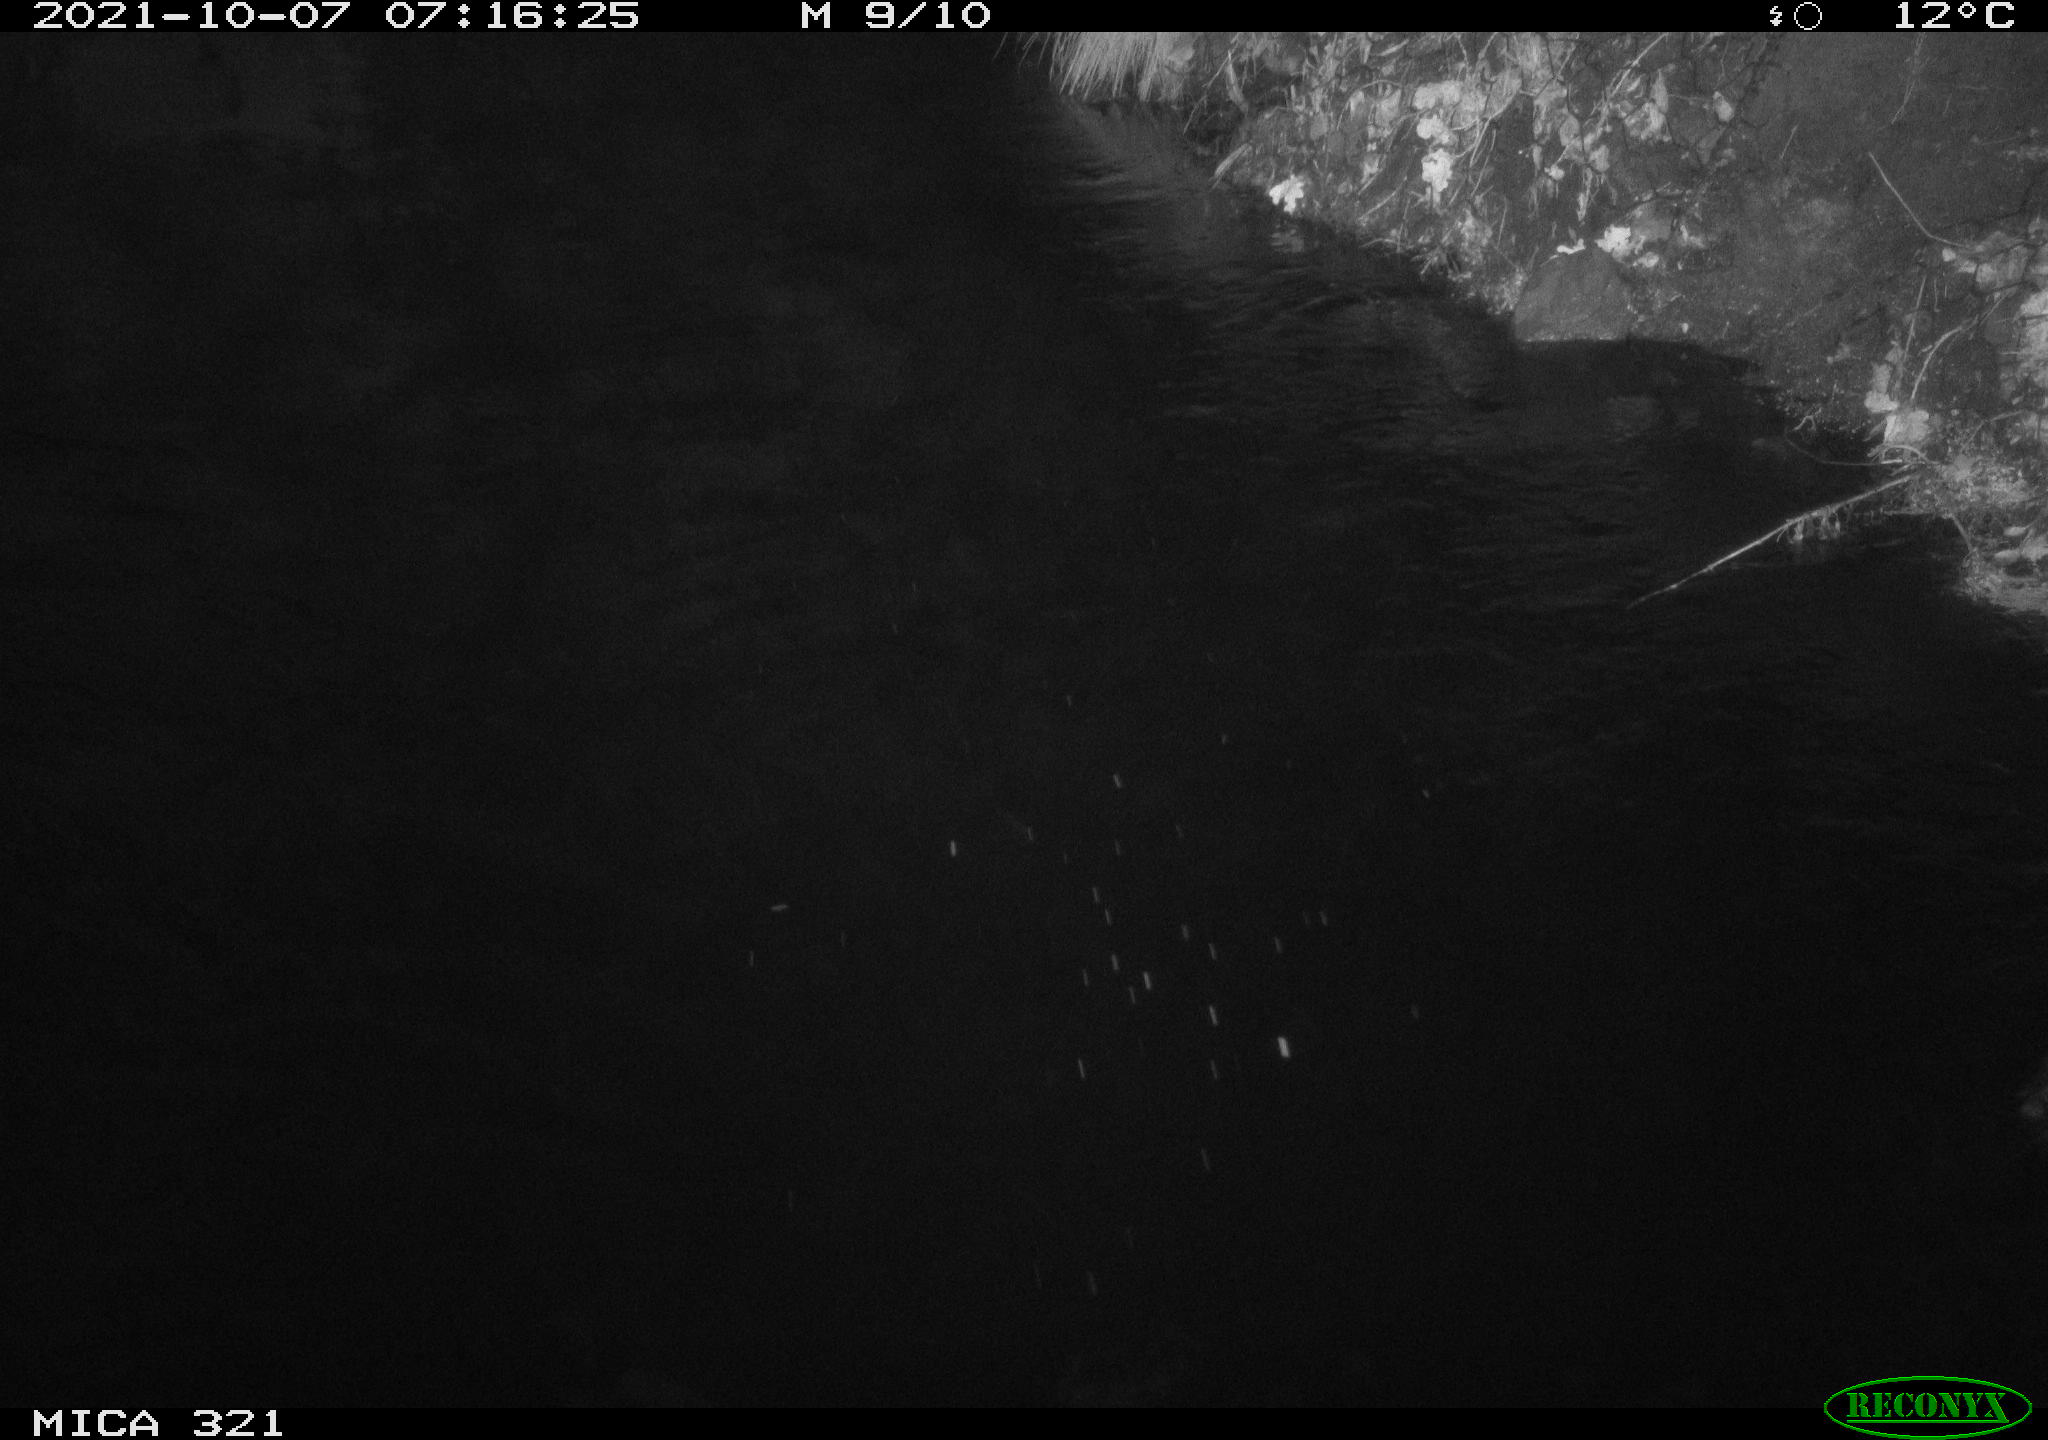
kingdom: Animalia
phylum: Chordata
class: Aves
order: Anseriformes
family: Anatidae
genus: Anas
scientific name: Anas platyrhynchos
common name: Mallard
